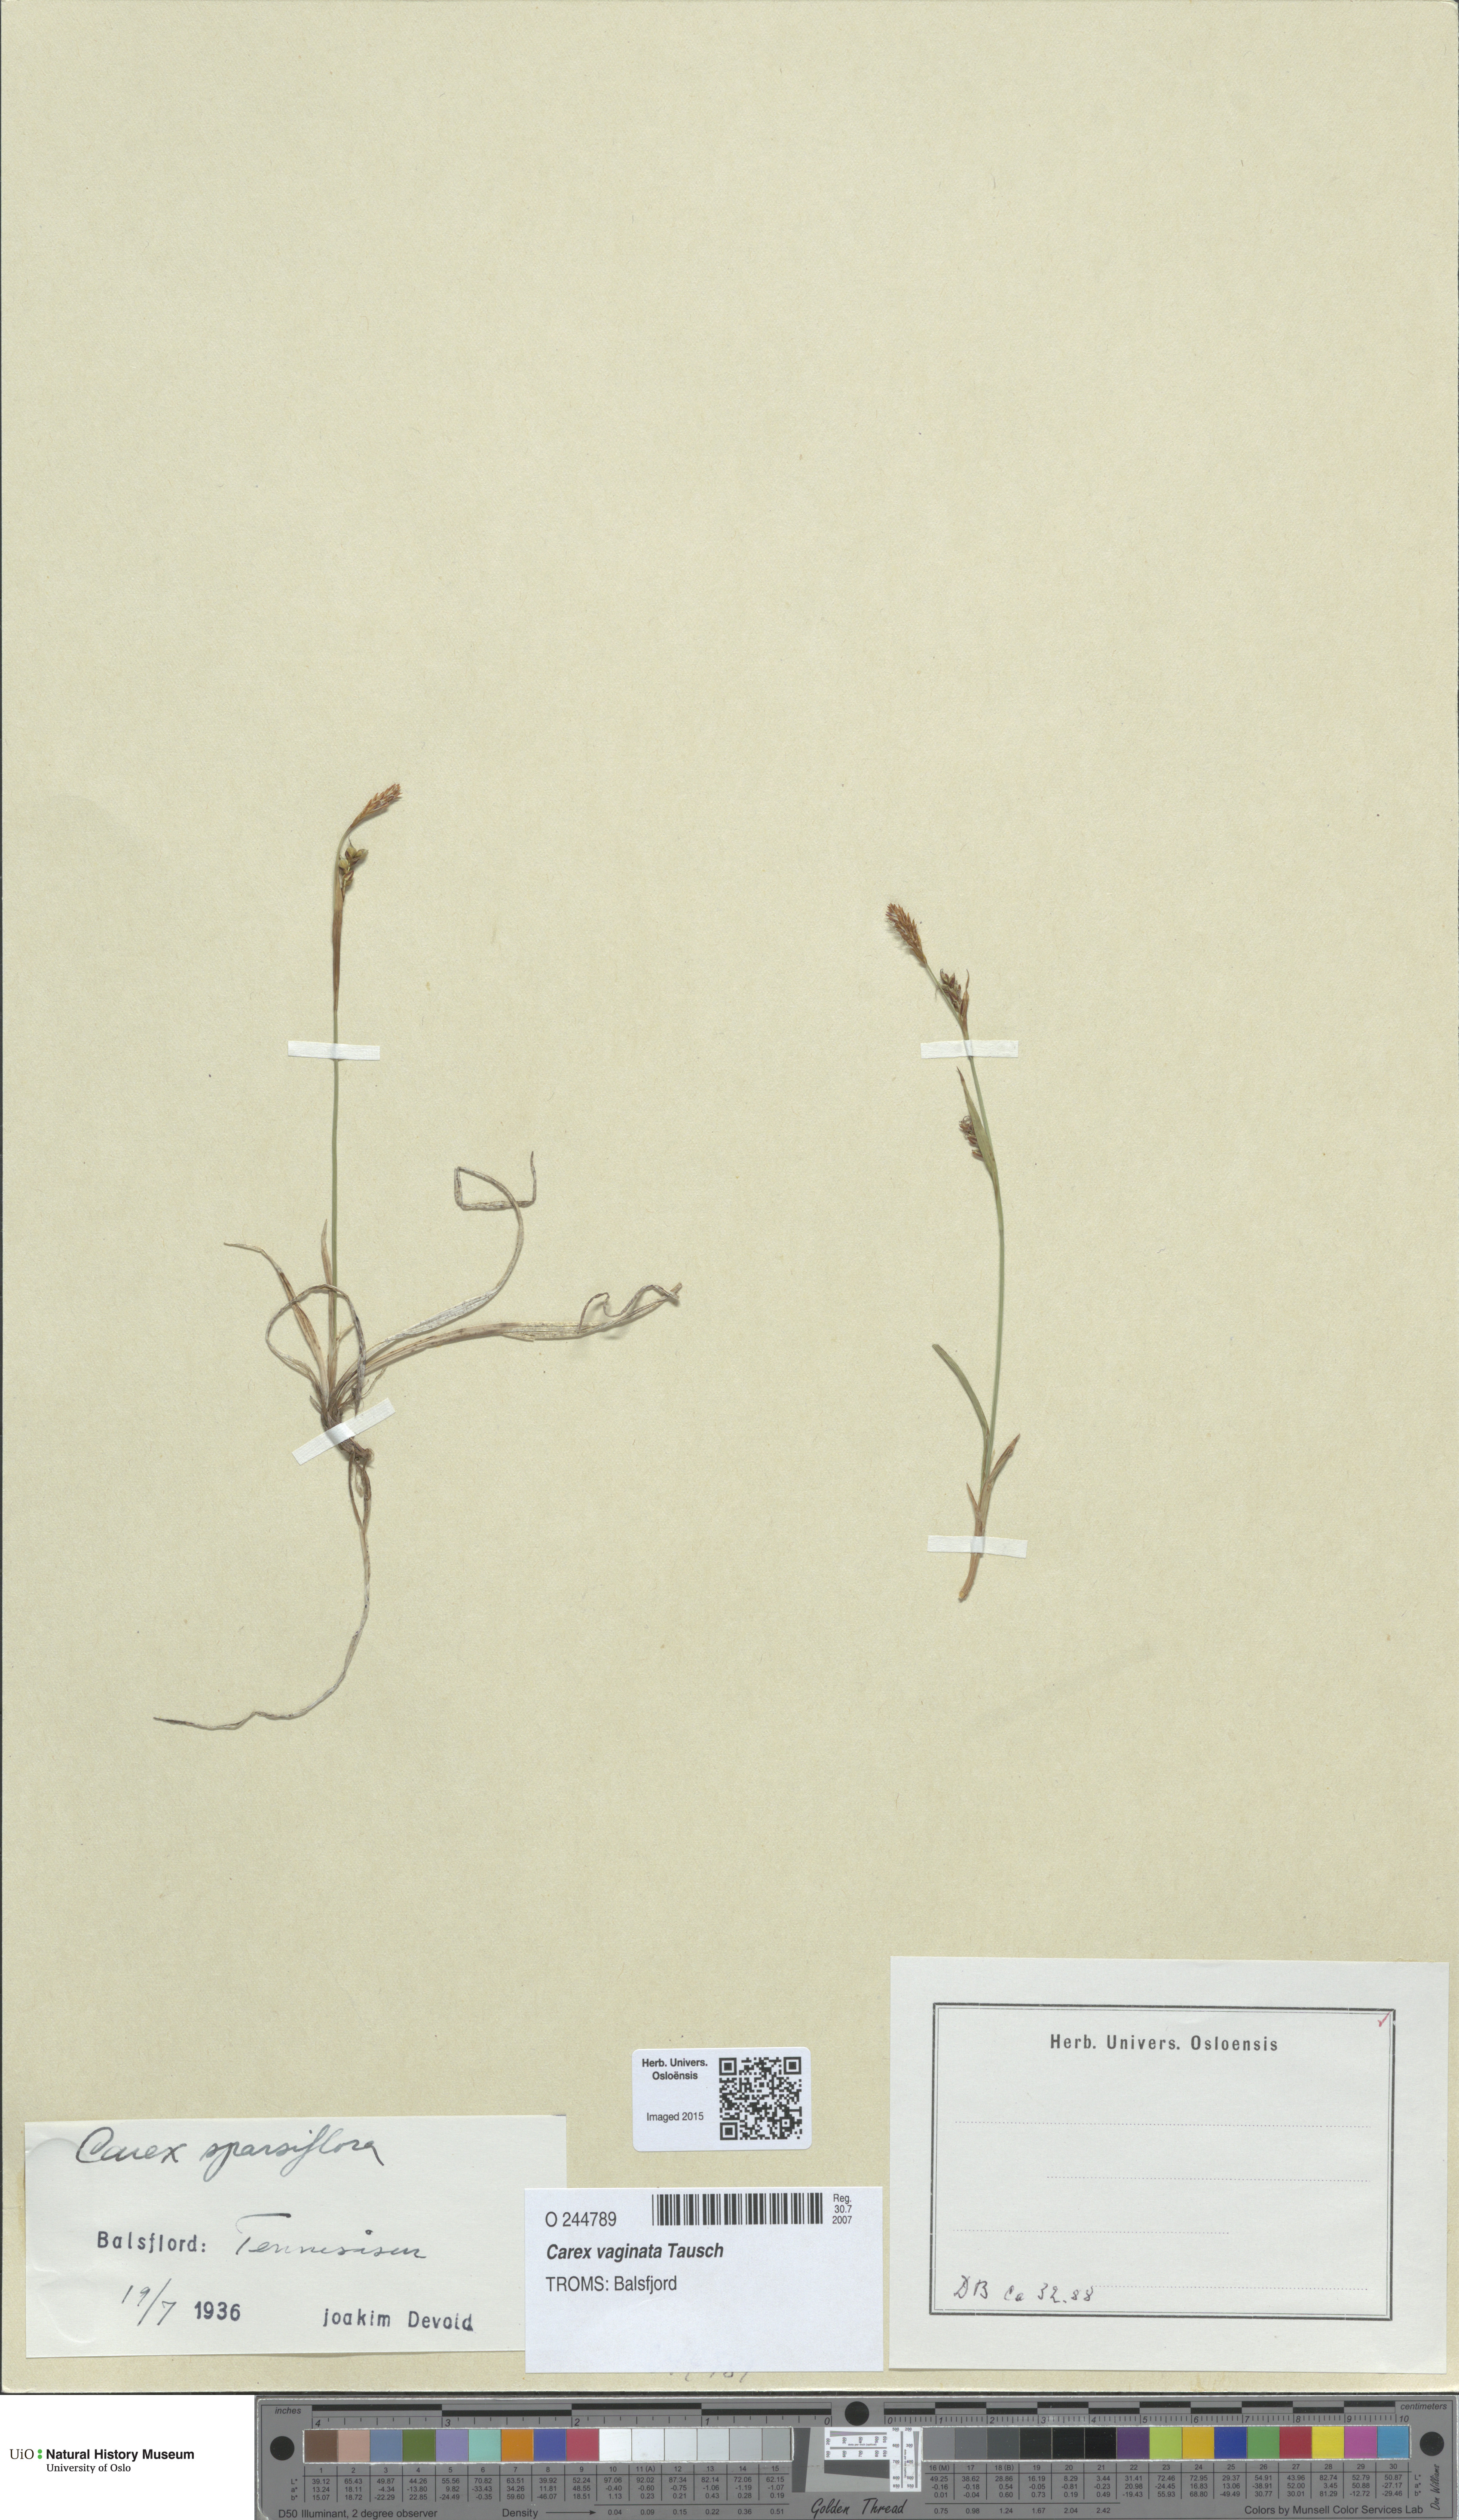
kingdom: Plantae
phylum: Tracheophyta
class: Liliopsida
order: Poales
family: Cyperaceae
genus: Carex
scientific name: Carex vaginata
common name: Sheathed sedge
